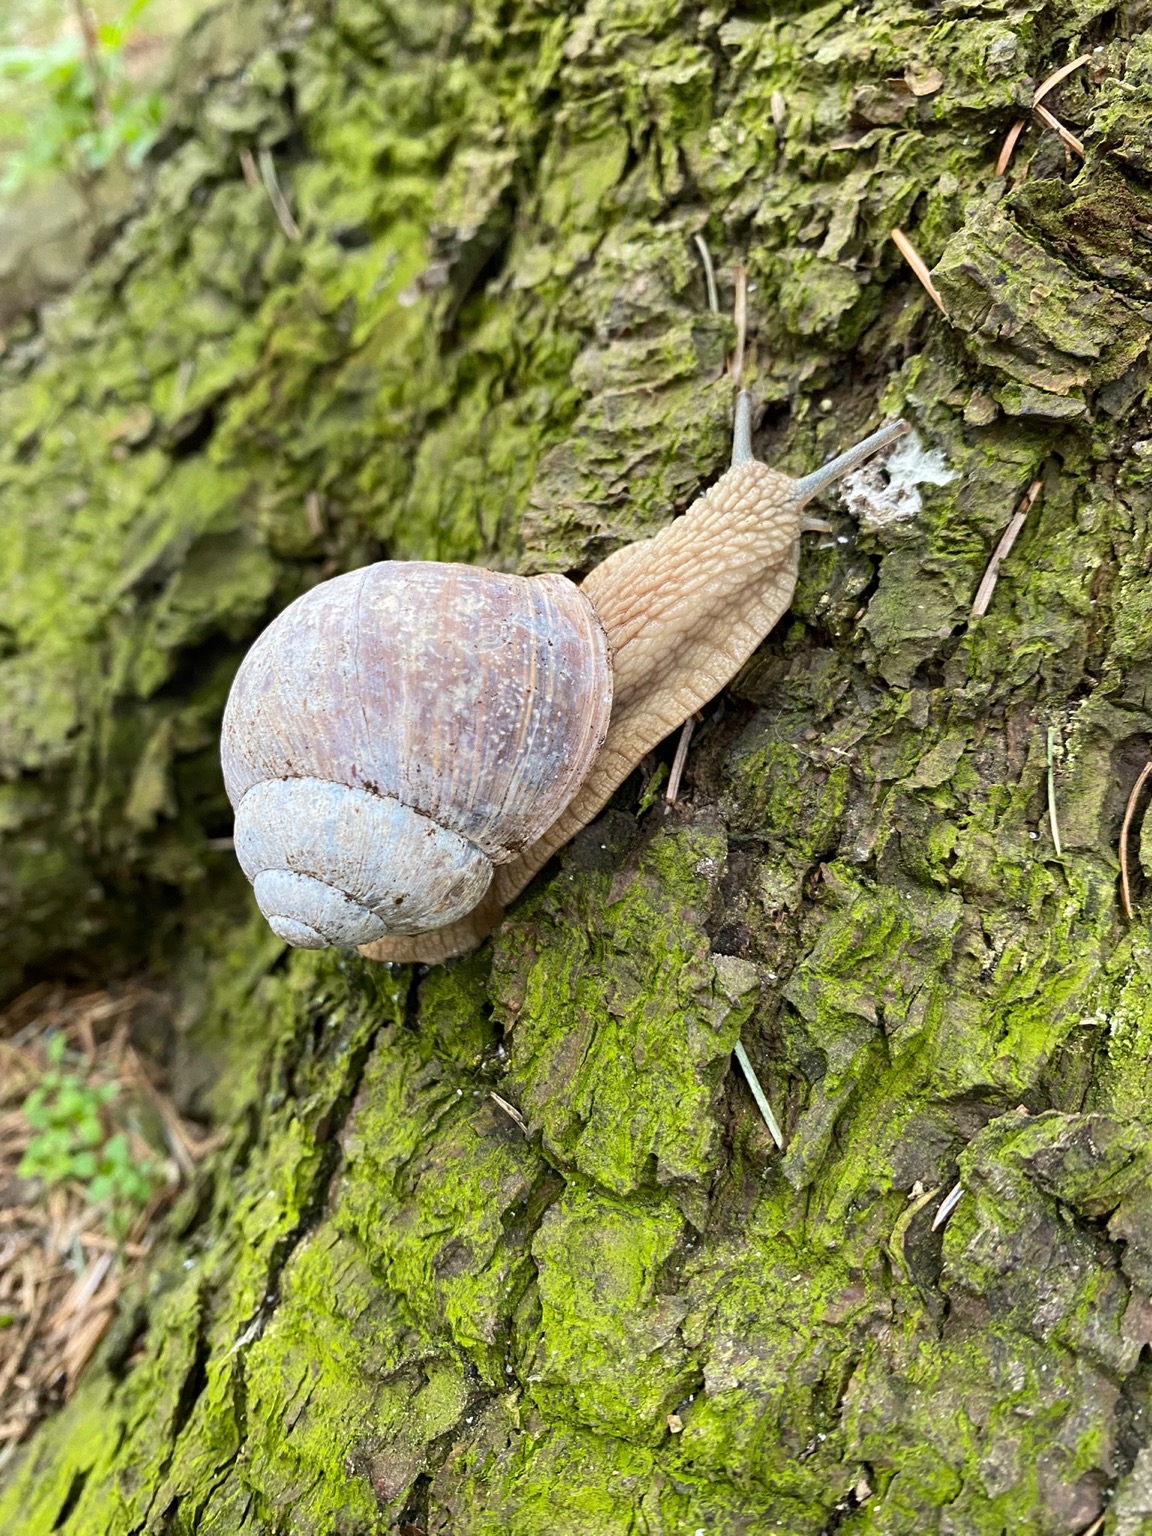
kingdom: Animalia
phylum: Mollusca
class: Gastropoda
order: Stylommatophora
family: Helicidae
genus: Helix
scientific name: Helix pomatia
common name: Vinbjergsnegl
